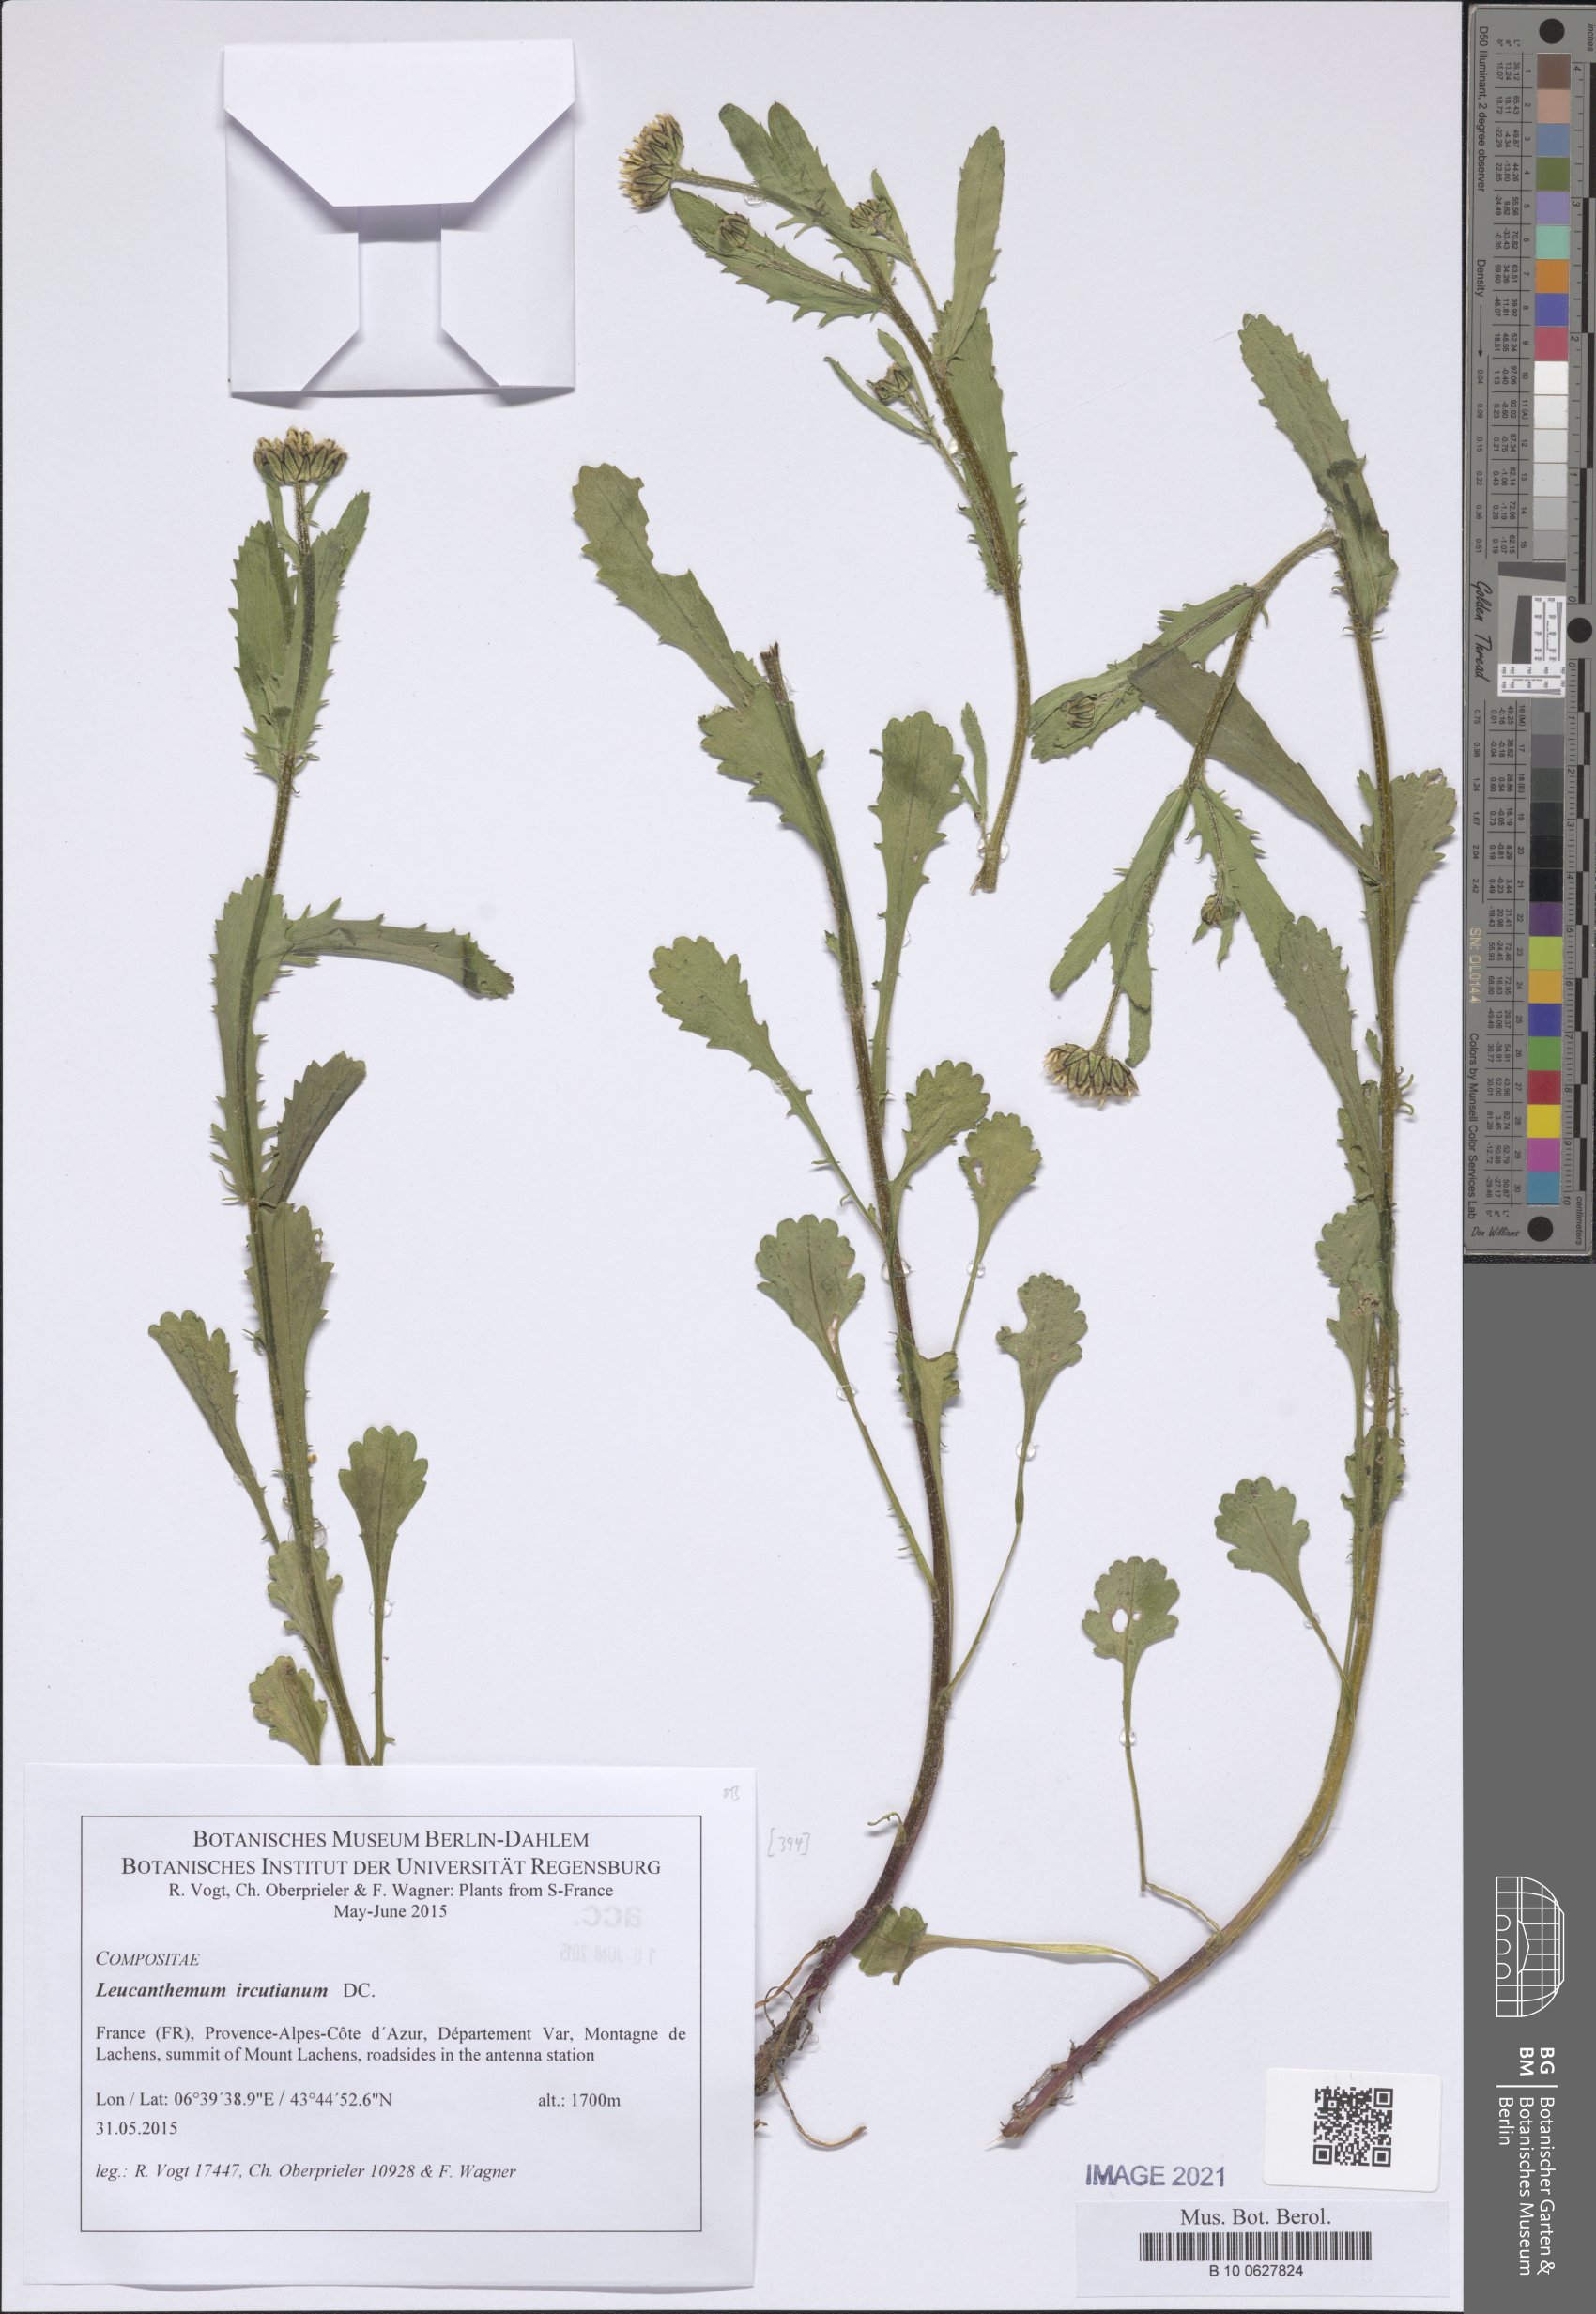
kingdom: Plantae
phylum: Tracheophyta
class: Magnoliopsida
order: Asterales
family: Asteraceae
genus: Leucanthemum
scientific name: Leucanthemum ircutianum
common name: Daisy
